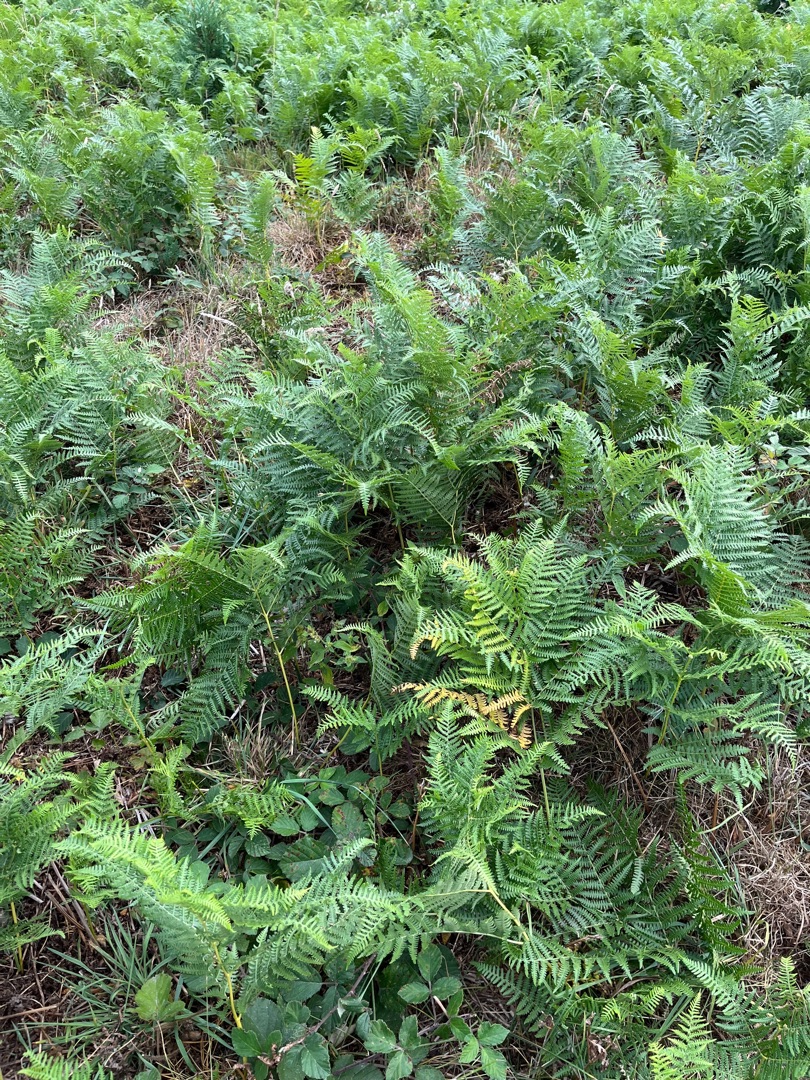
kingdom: Plantae
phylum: Tracheophyta
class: Polypodiopsida
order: Polypodiales
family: Dennstaedtiaceae
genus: Pteridium
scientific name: Pteridium aquilinum
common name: Ørnebregne
